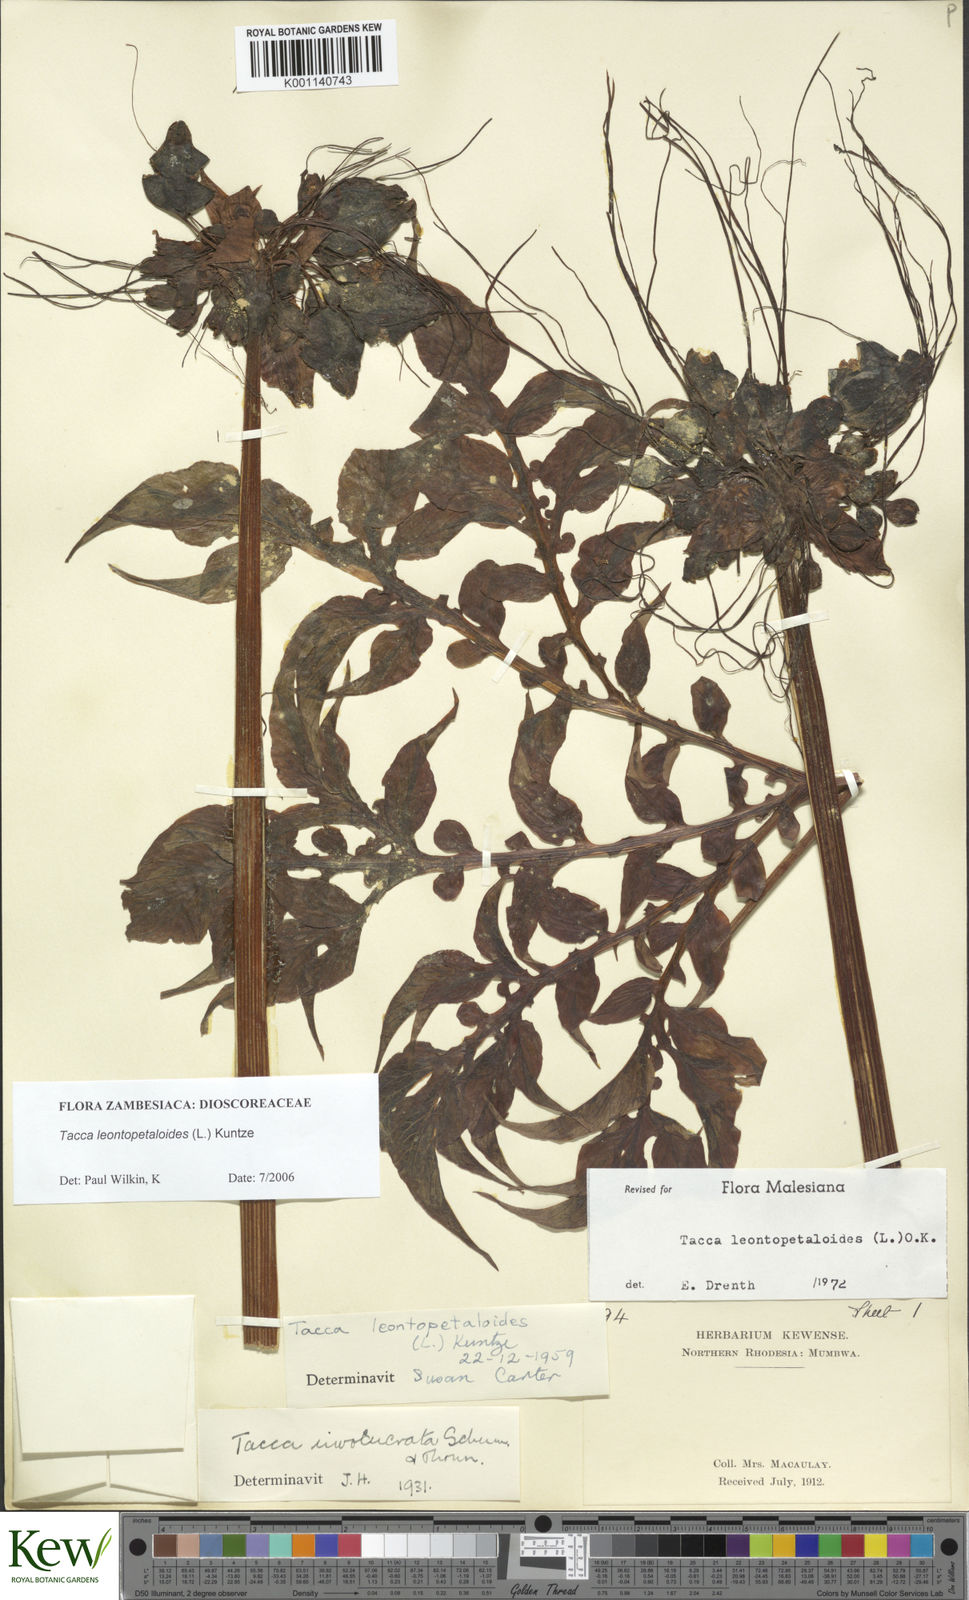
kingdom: Plantae
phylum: Tracheophyta
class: Liliopsida
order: Dioscoreales
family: Dioscoreaceae
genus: Tacca
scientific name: Tacca leontopetaloides
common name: Arrowroot
